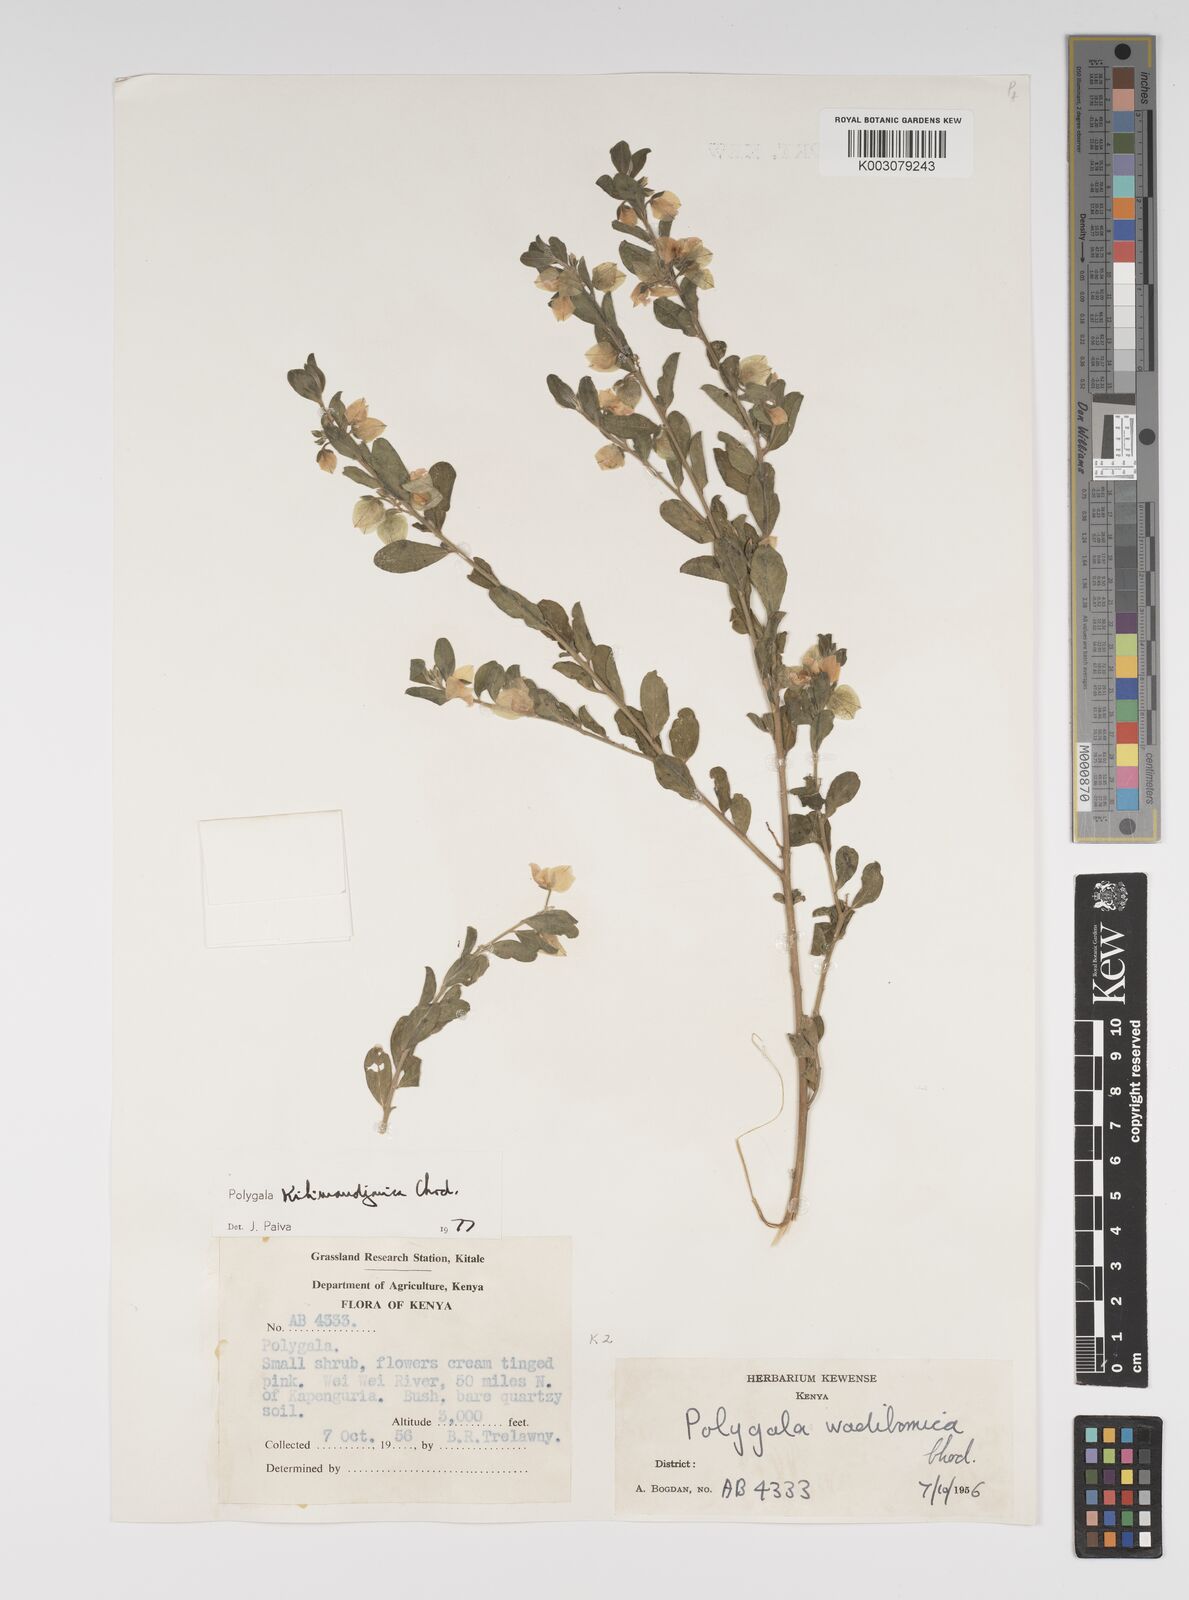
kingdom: Plantae
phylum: Tracheophyta
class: Magnoliopsida
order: Fabales
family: Polygalaceae
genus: Polygala
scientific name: Polygala kilimandjarica
